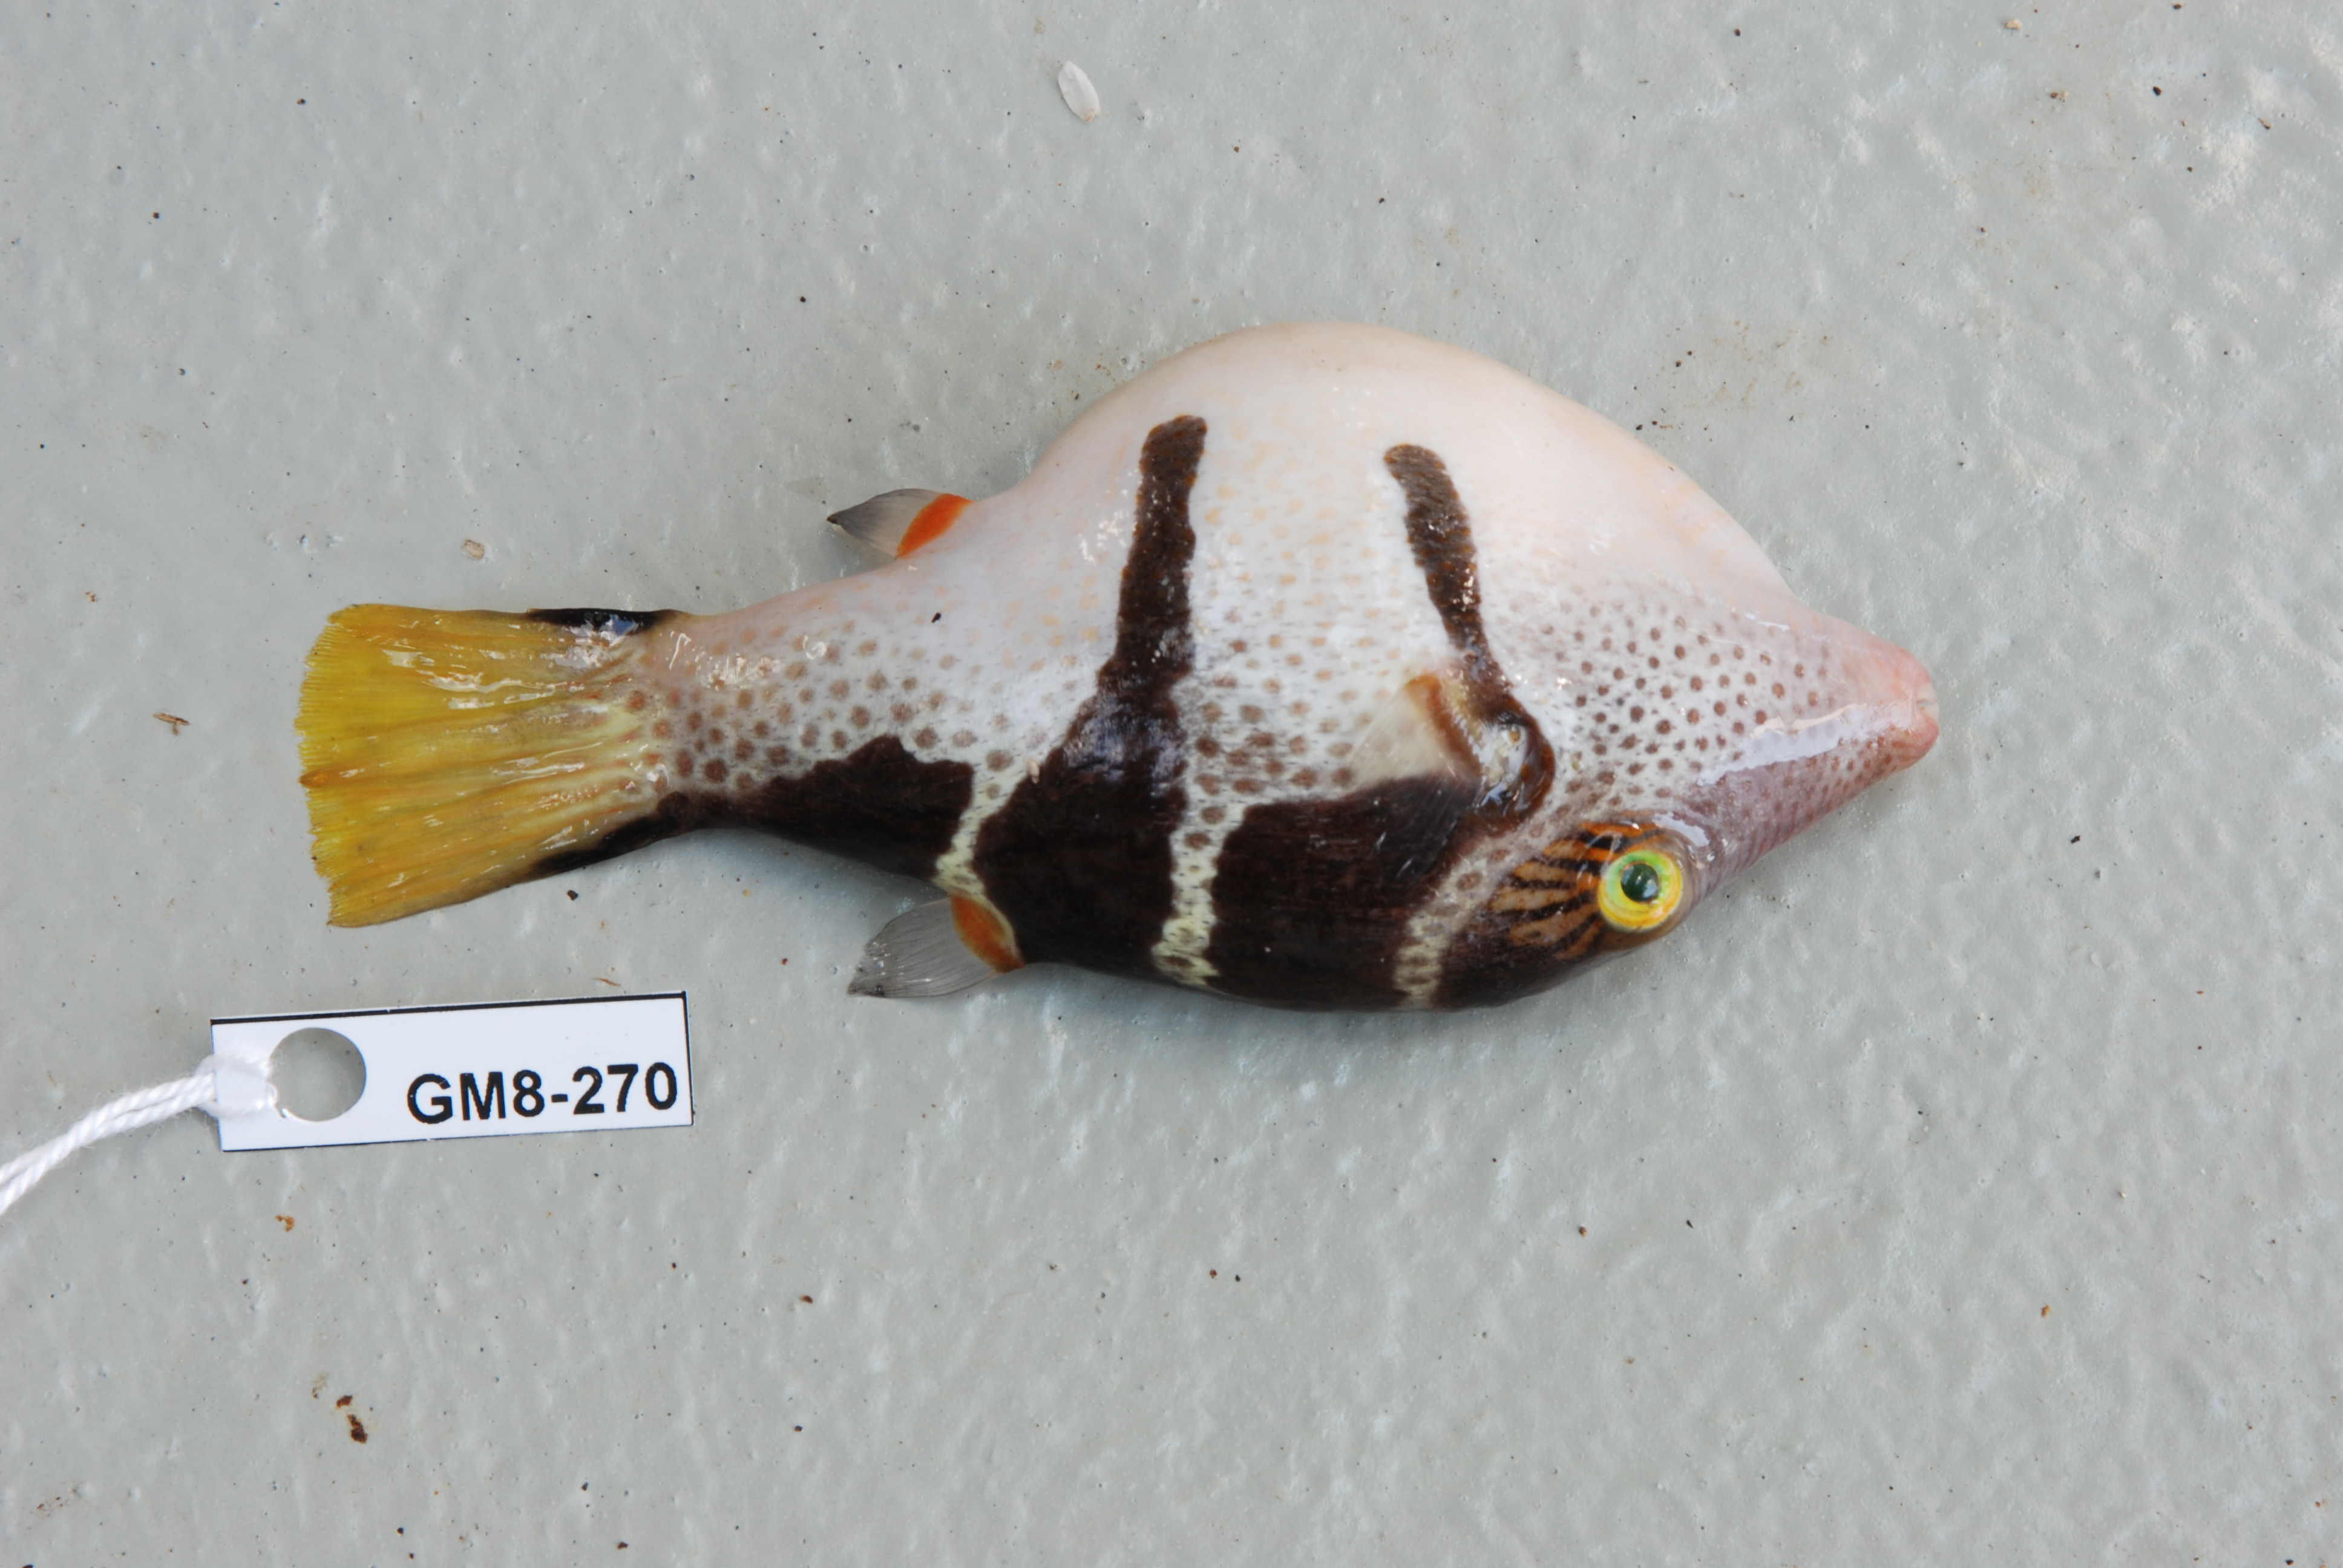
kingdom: Animalia
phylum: Chordata
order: Tetraodontiformes
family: Tetraodontidae
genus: Canthigaster
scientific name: Canthigaster valentini
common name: Banded toby
